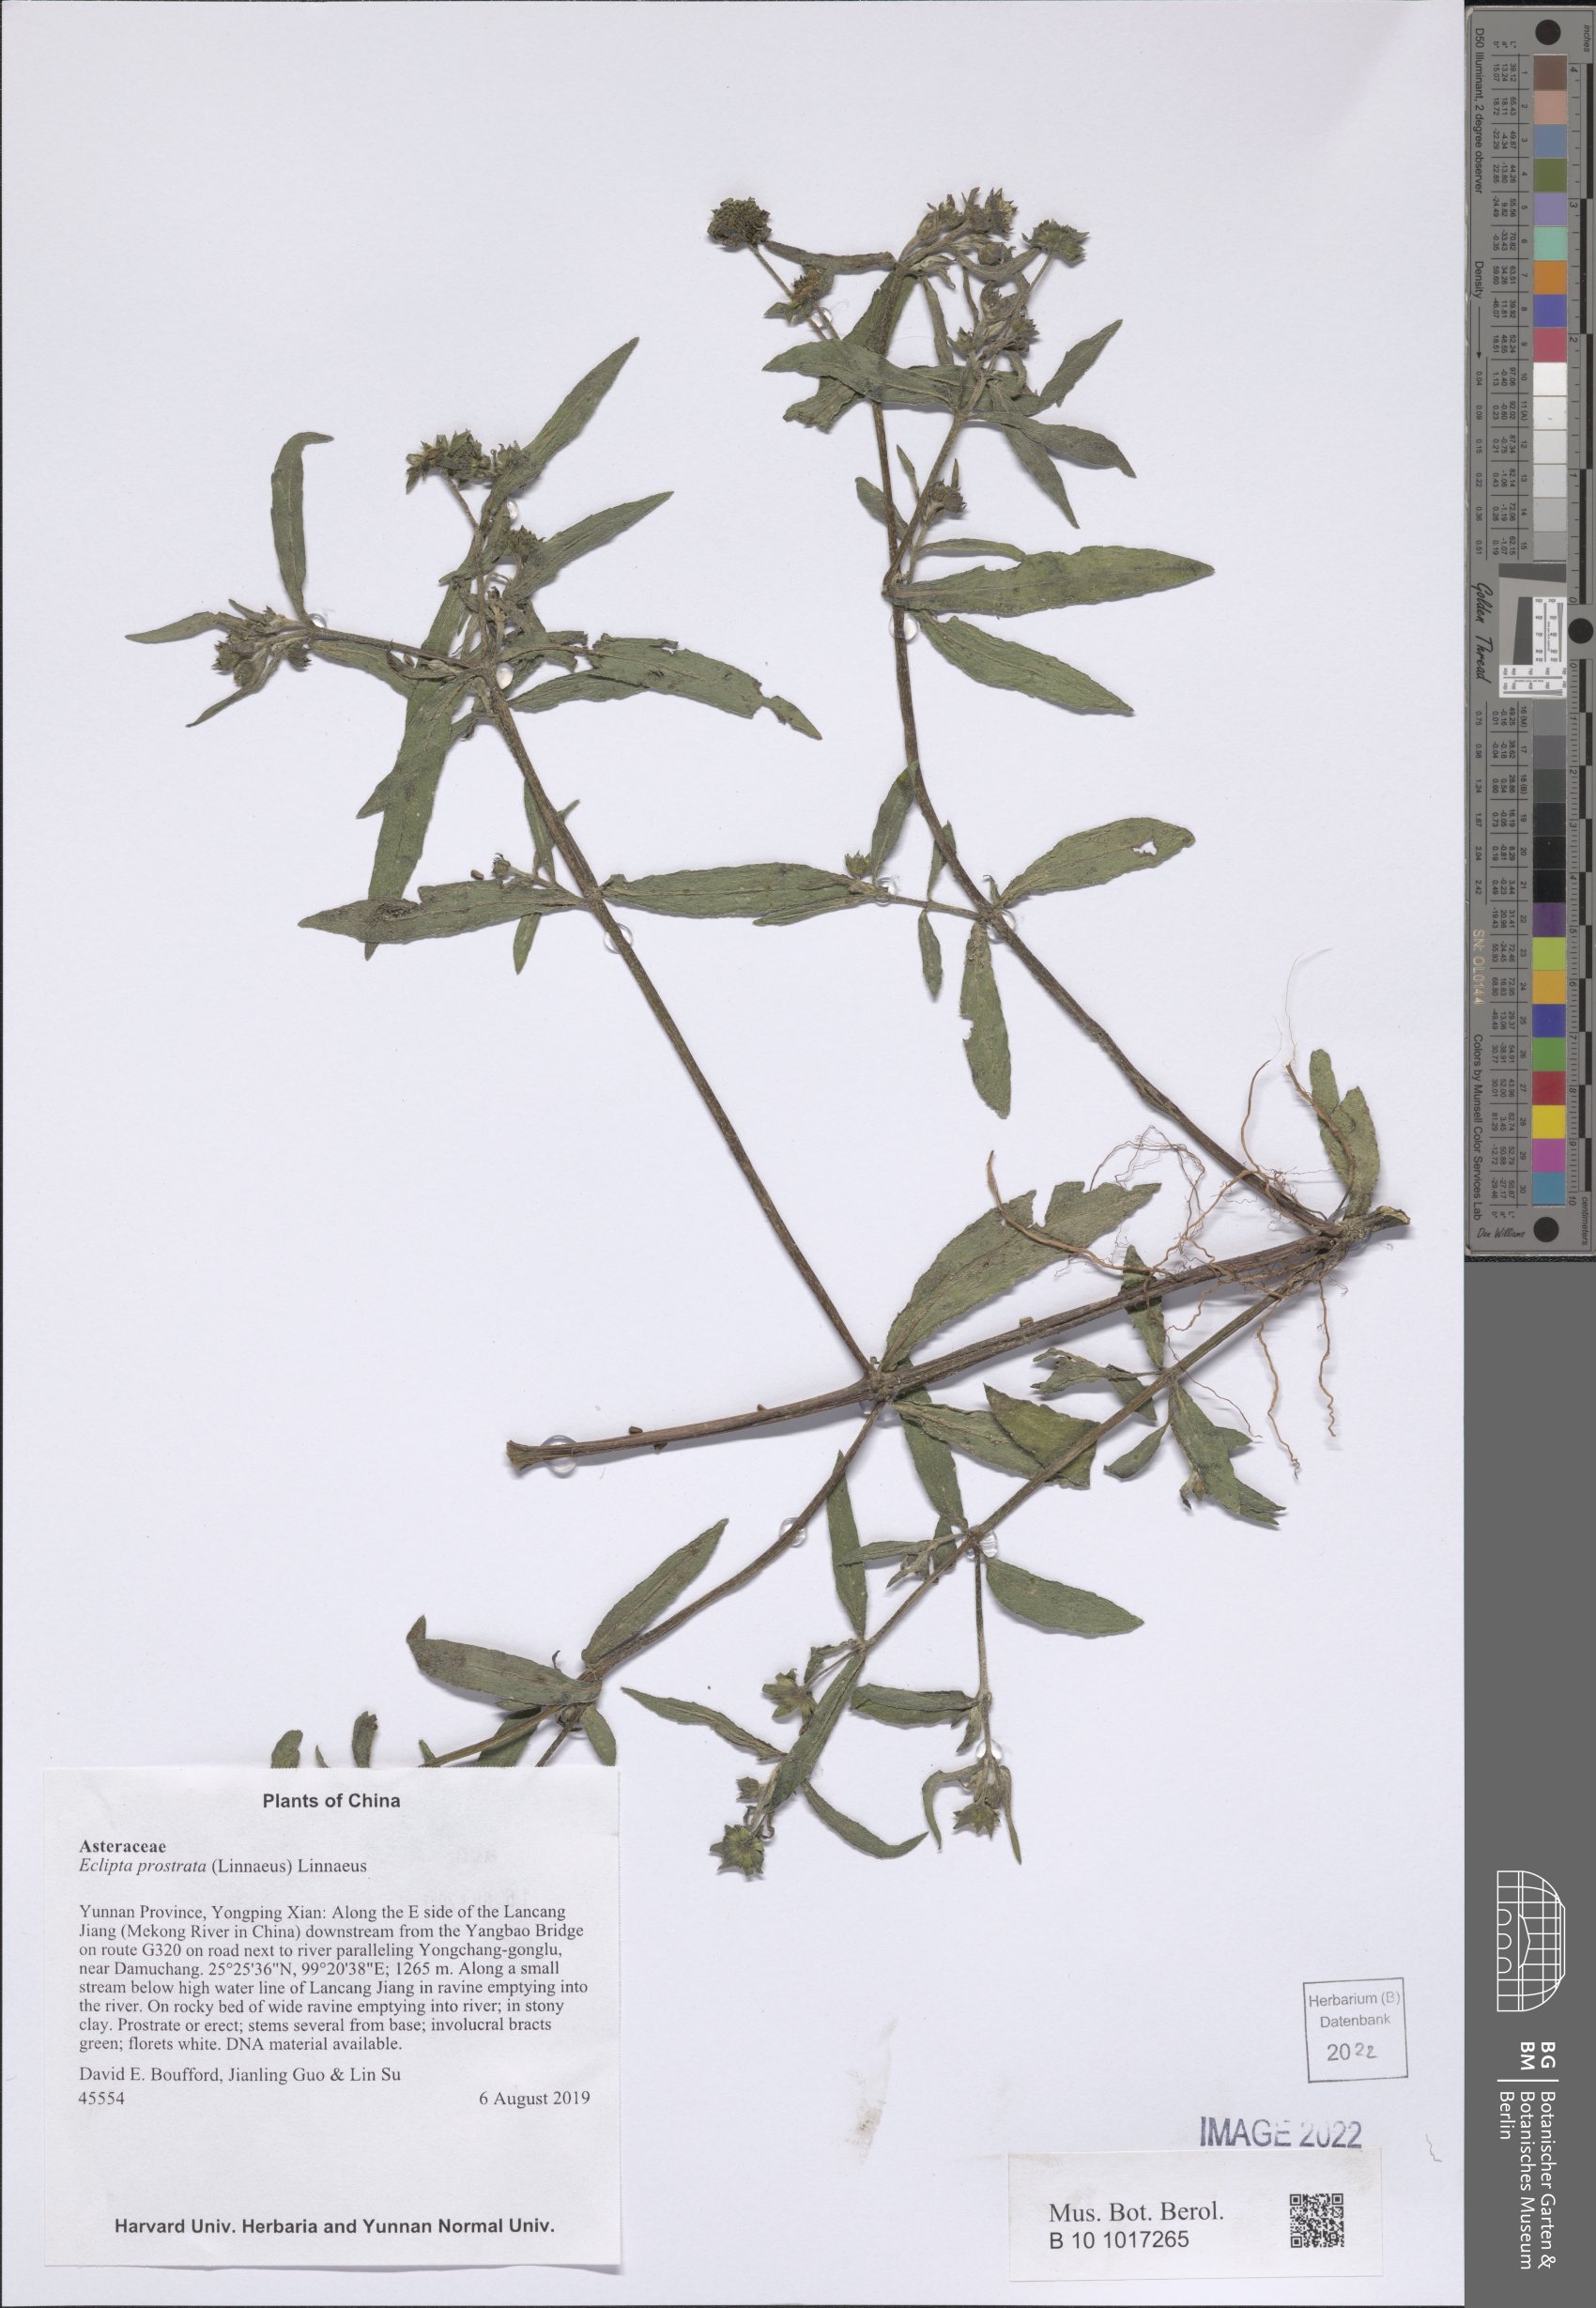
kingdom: Plantae
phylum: Tracheophyta
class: Magnoliopsida
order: Asterales
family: Asteraceae
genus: Eclipta
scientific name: Eclipta prostrata
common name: False daisy
